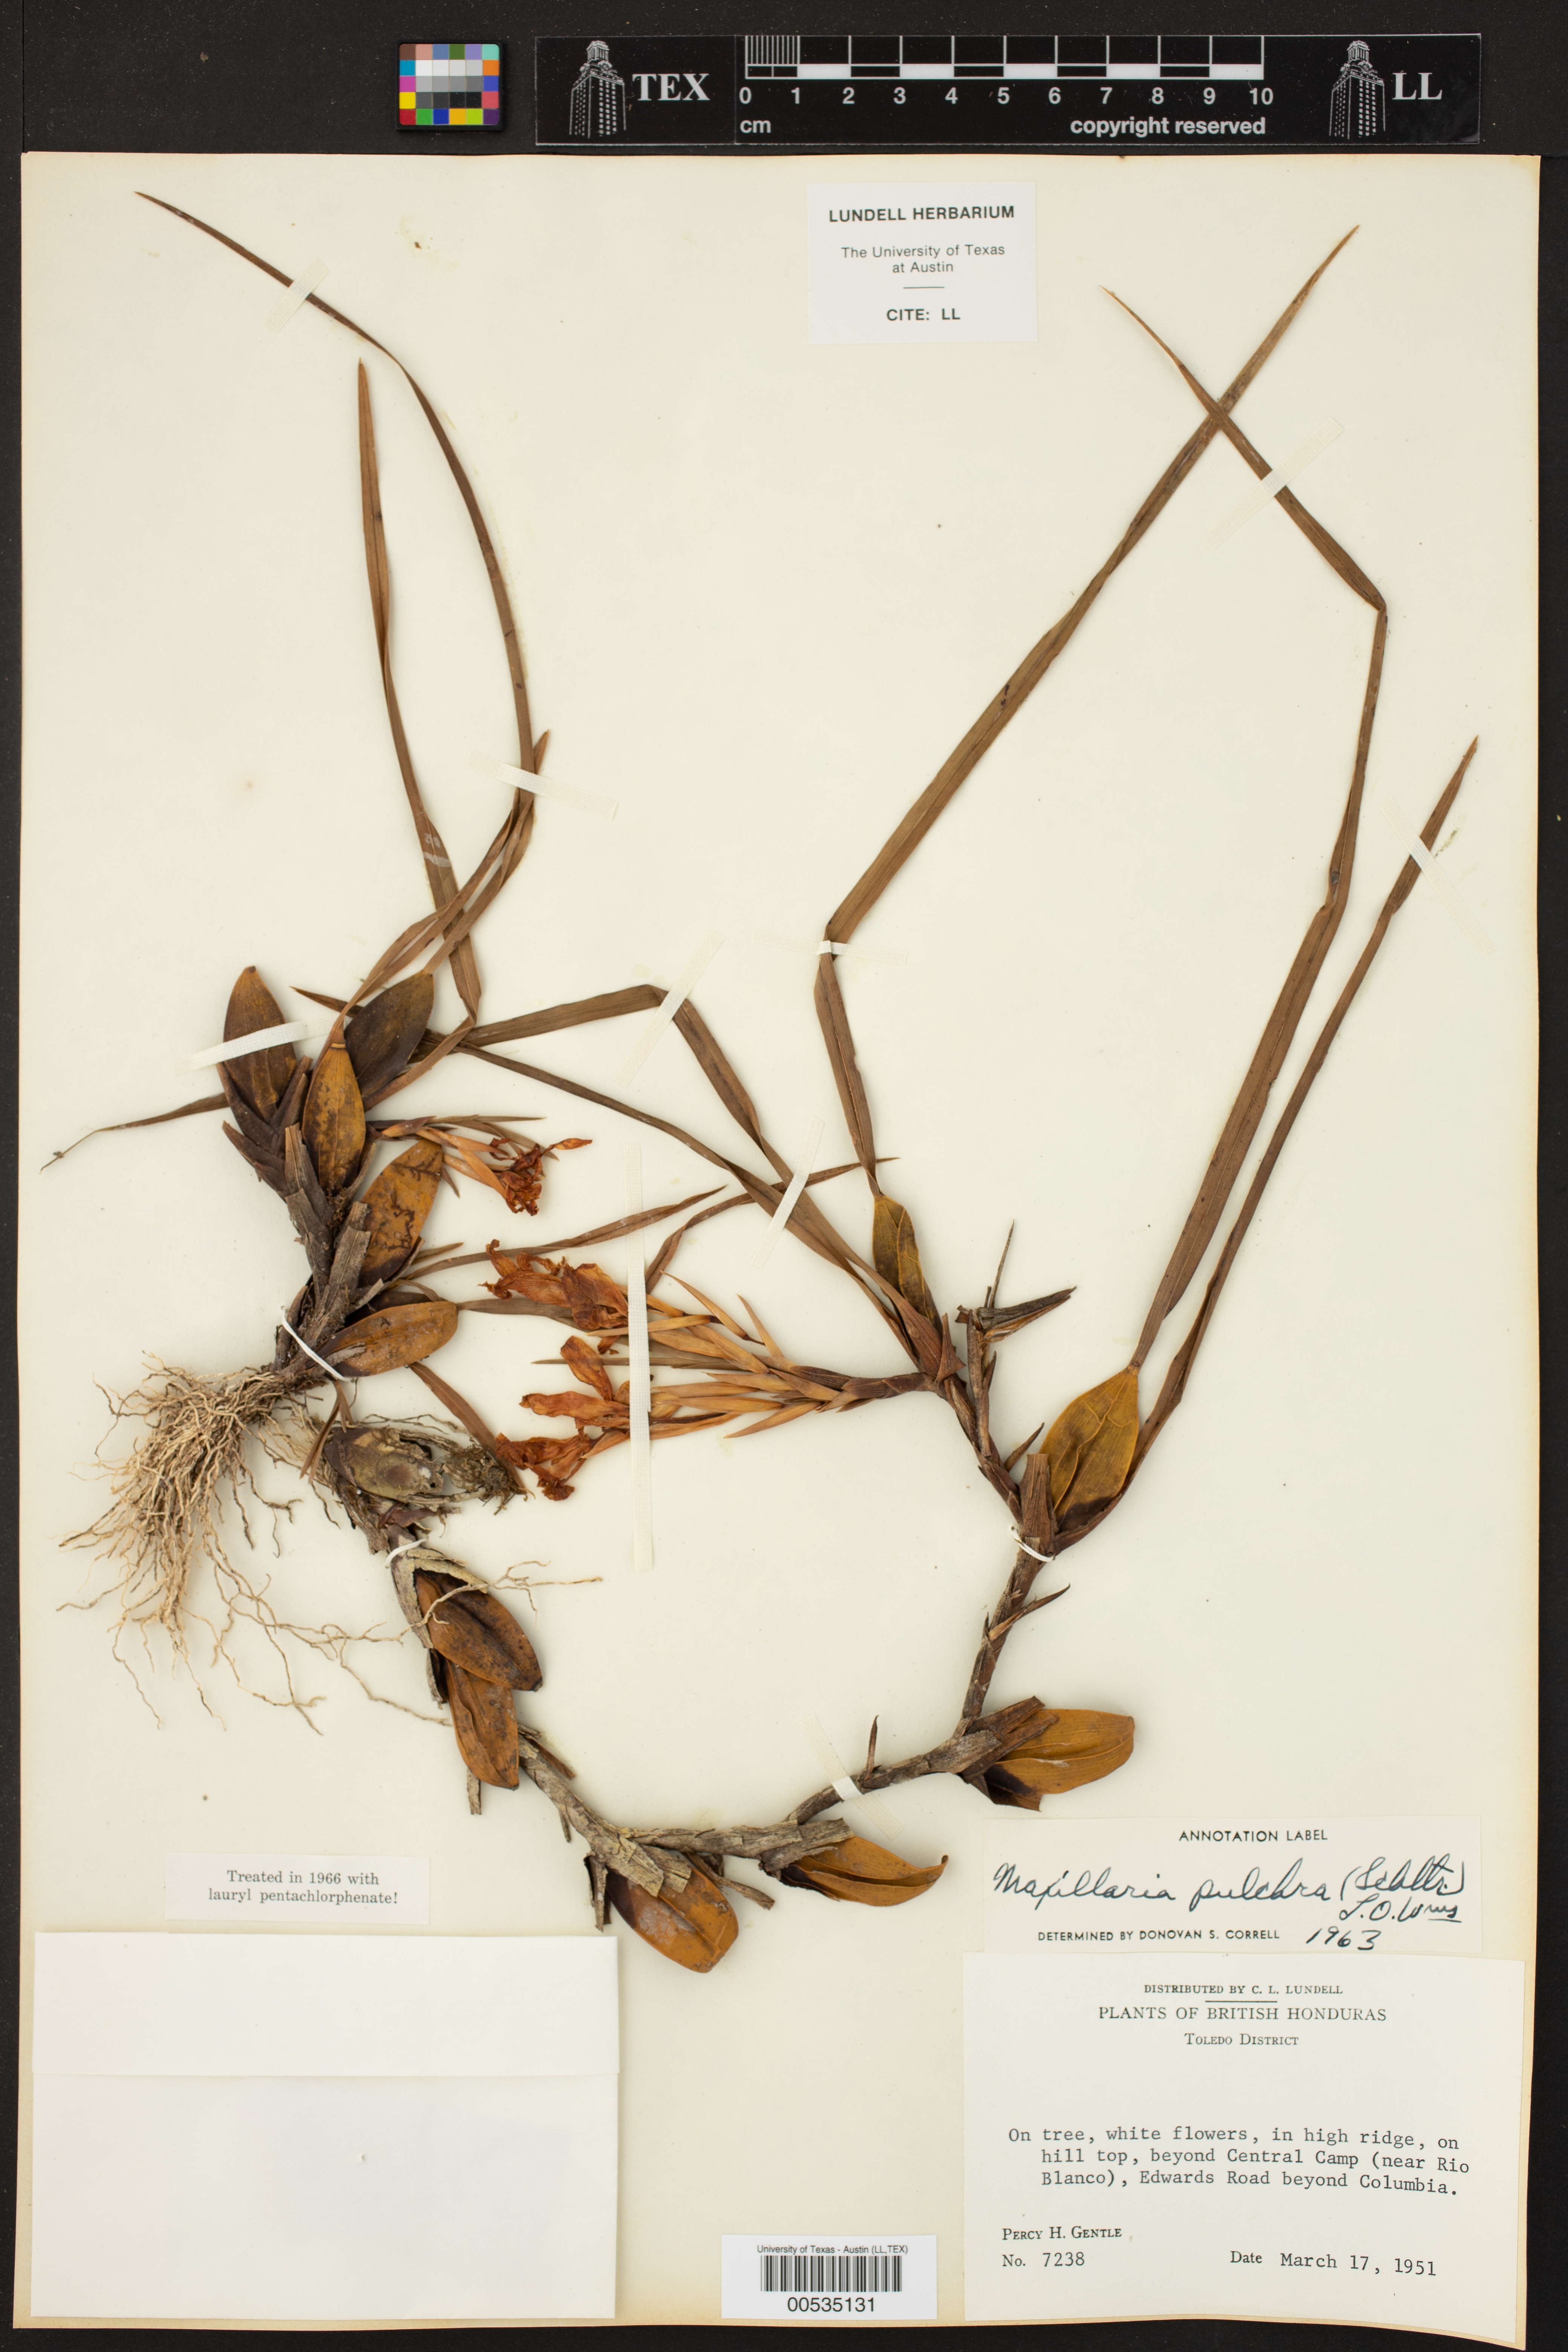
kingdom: Plantae
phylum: Tracheophyta
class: Liliopsida
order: Asparagales
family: Orchidaceae
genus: Maxillaria
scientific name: Maxillaria pulchra
